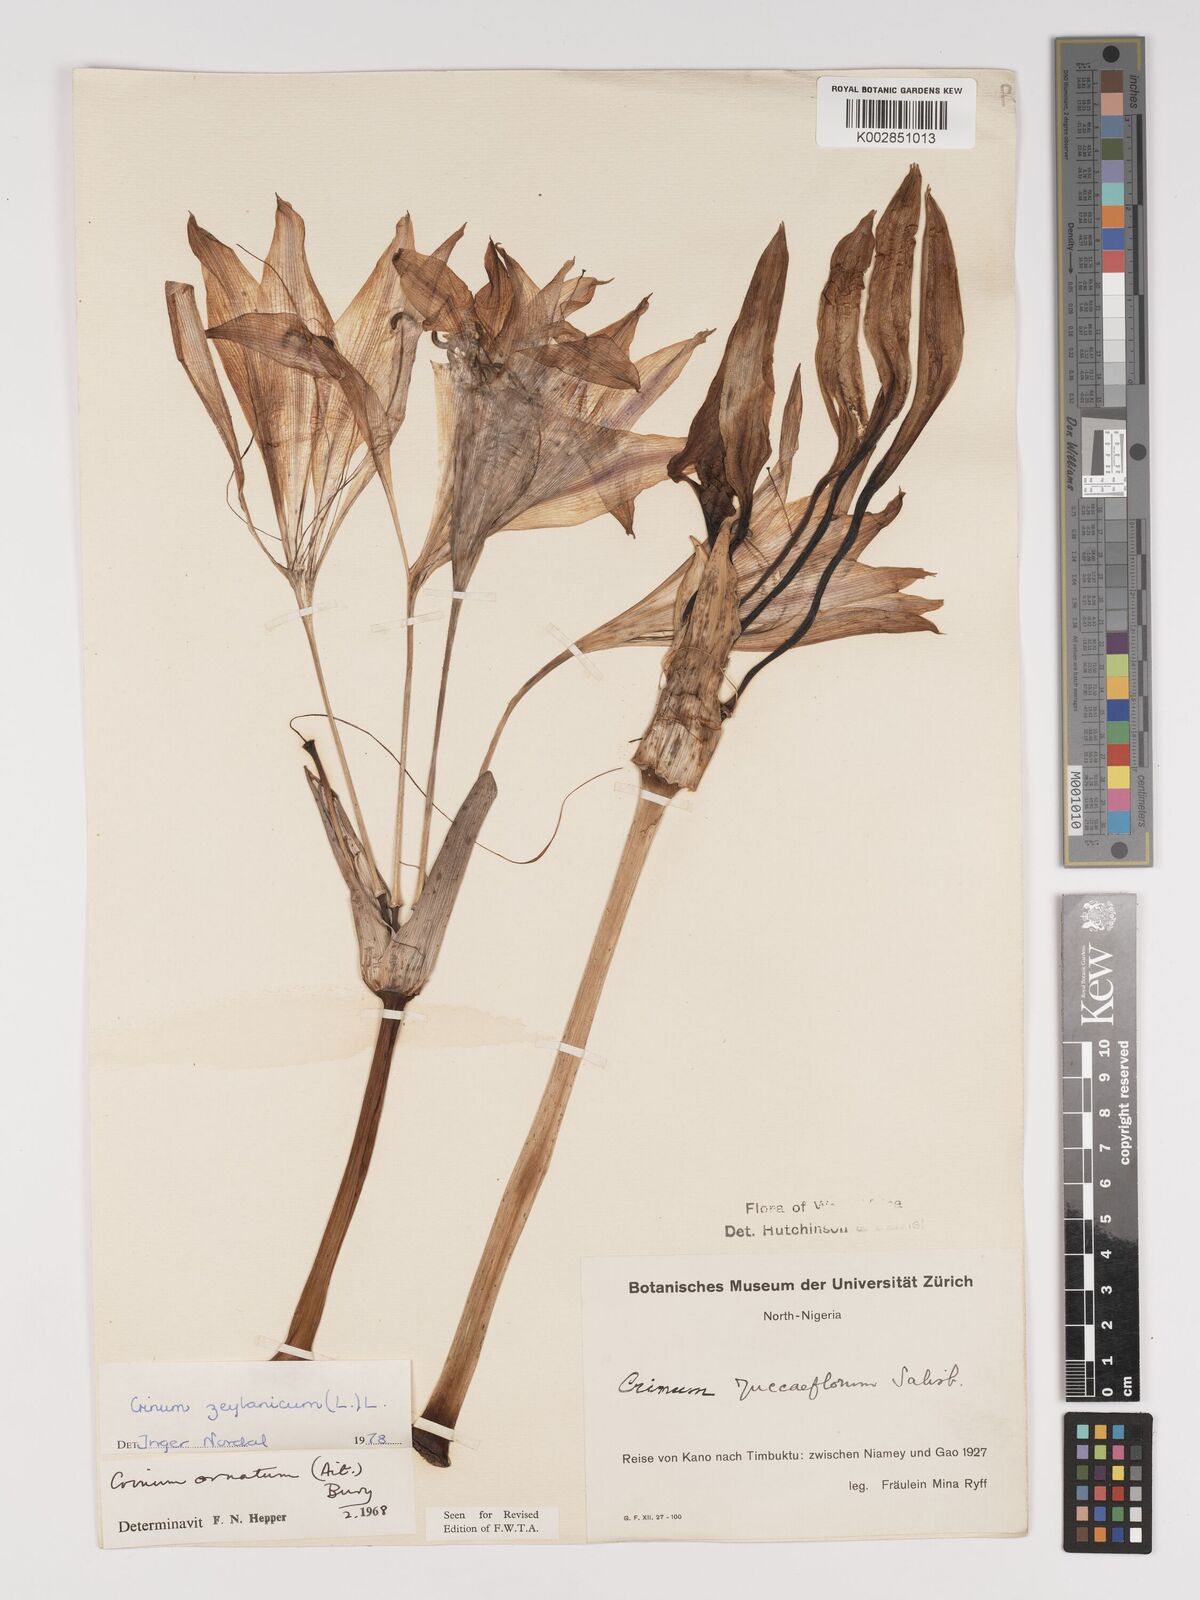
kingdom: Plantae
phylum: Tracheophyta
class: Liliopsida
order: Asparagales
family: Amaryllidaceae
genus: Crinum
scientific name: Crinum zeylanicum
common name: Ceylon swamplily
